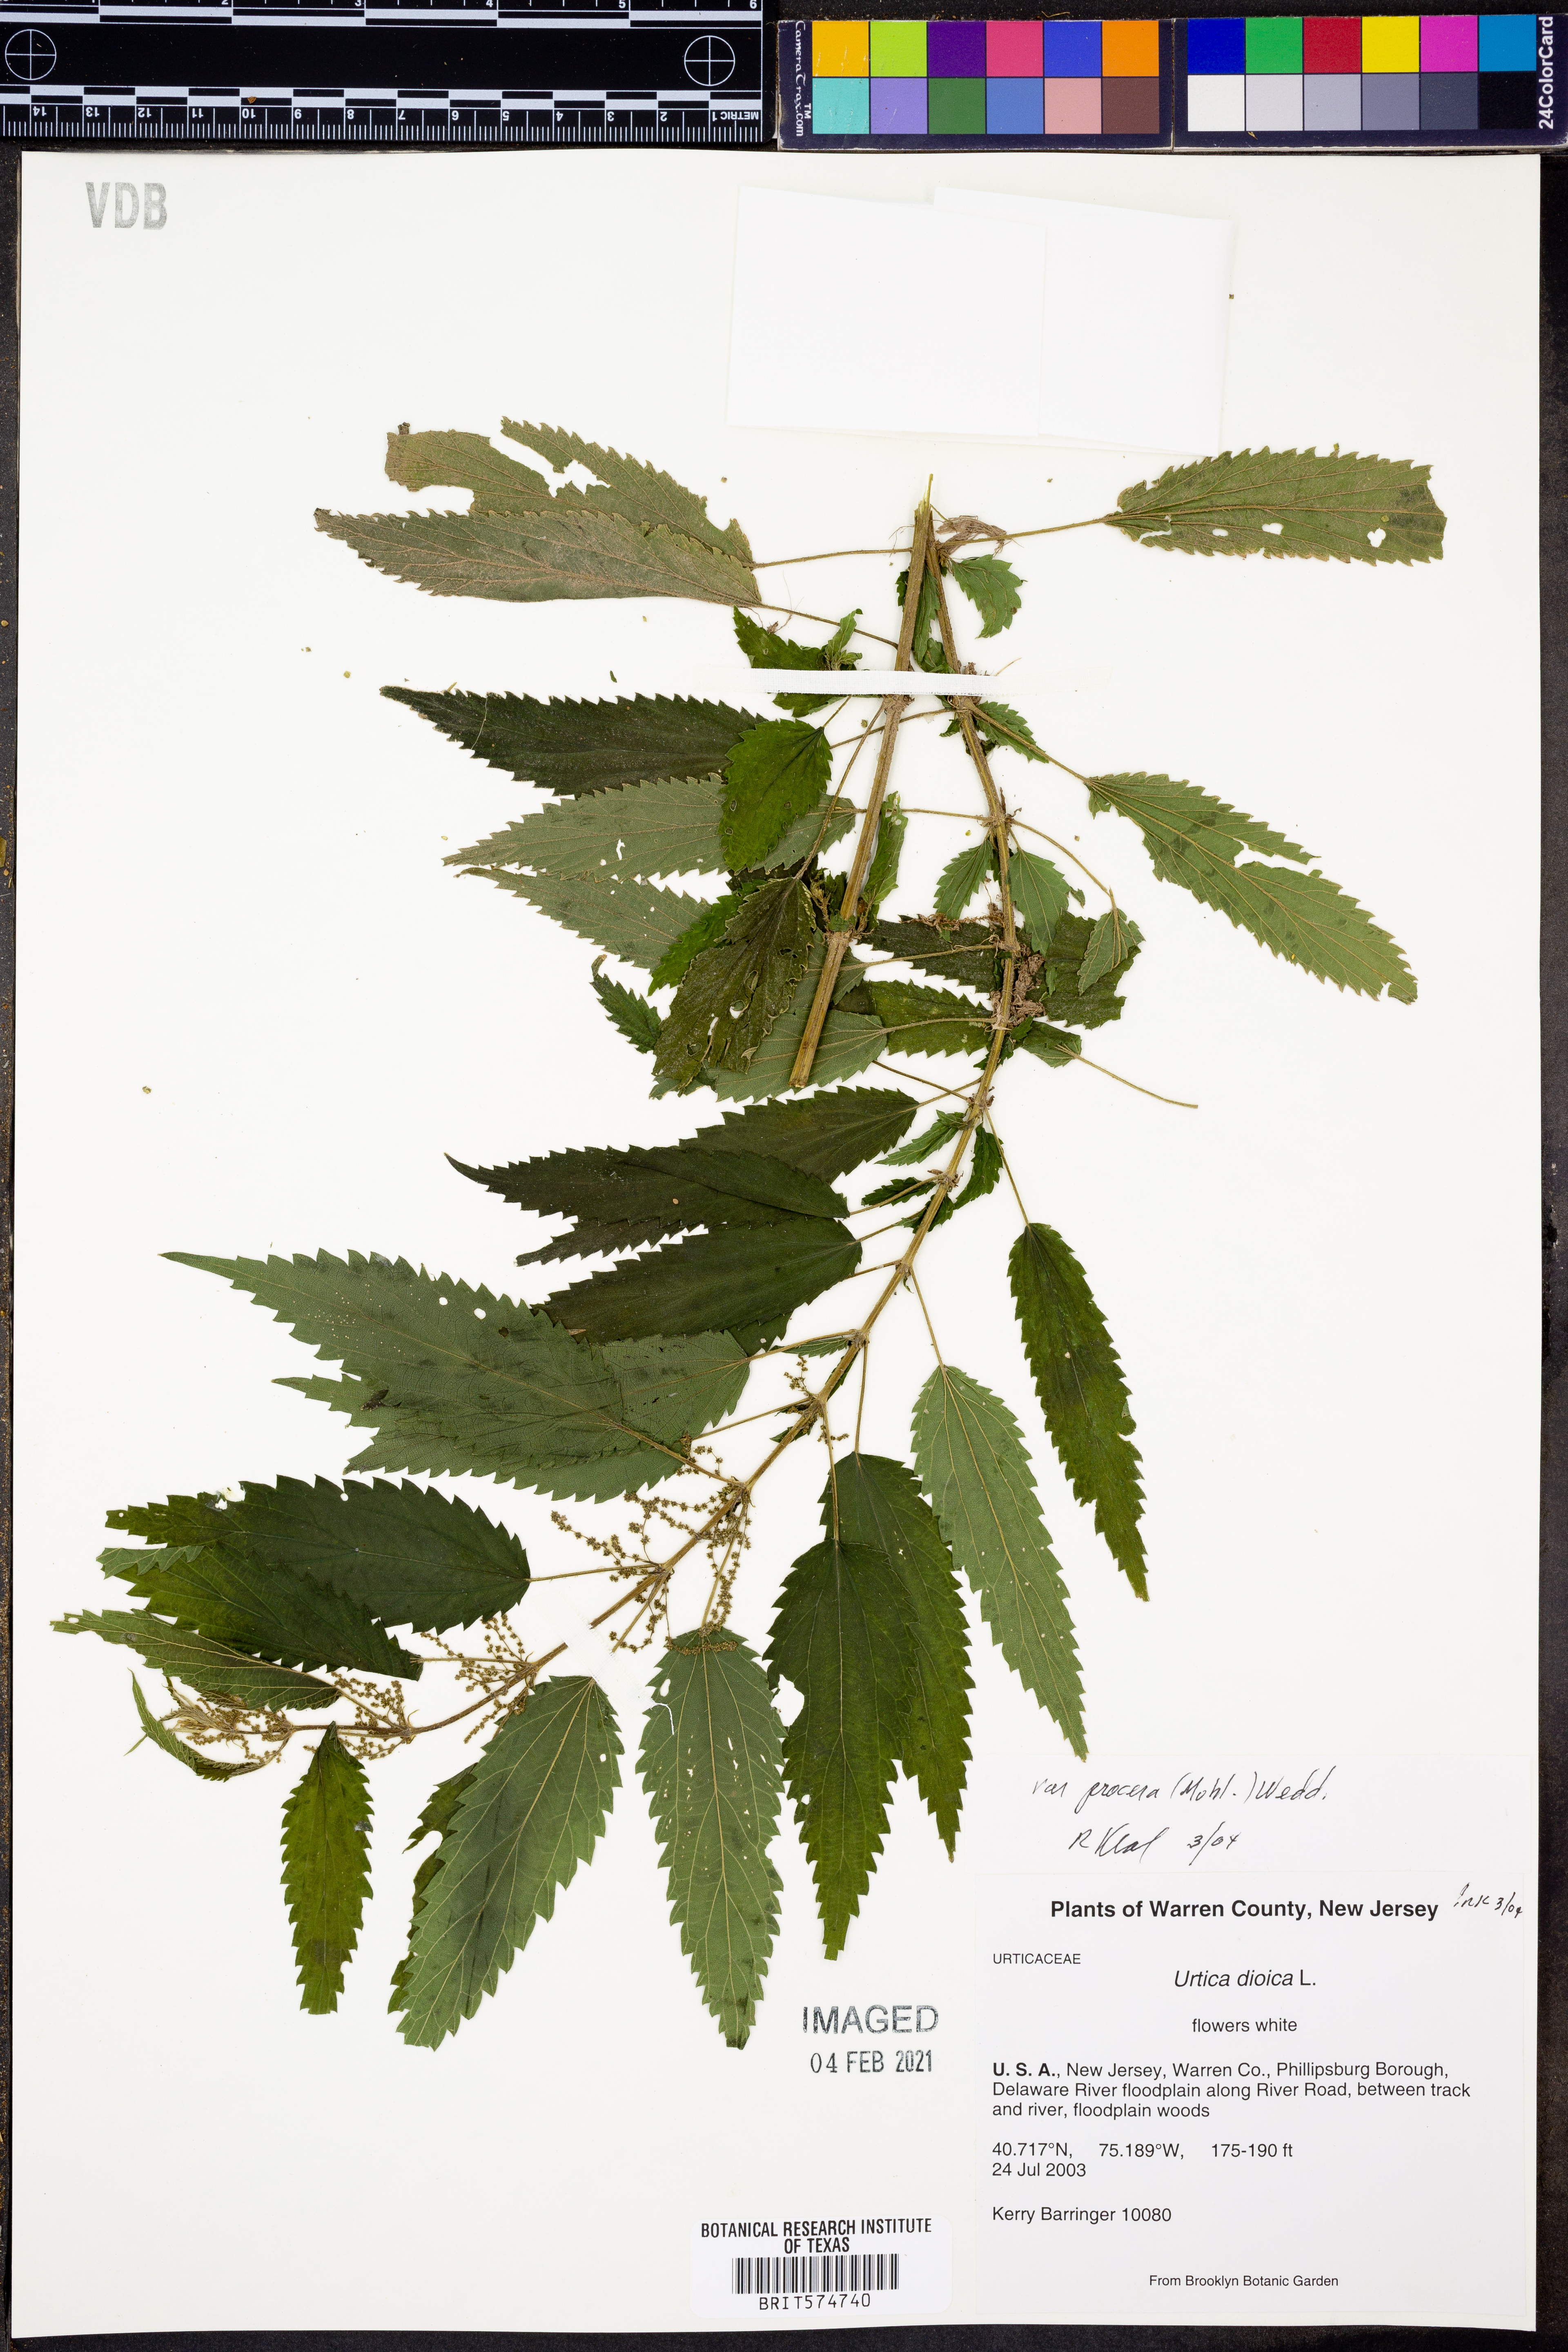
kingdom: Plantae
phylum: Tracheophyta
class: Magnoliopsida
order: Rosales
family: Urticaceae
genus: Urtica
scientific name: Urtica gracilis
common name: Slender stinging nettle
